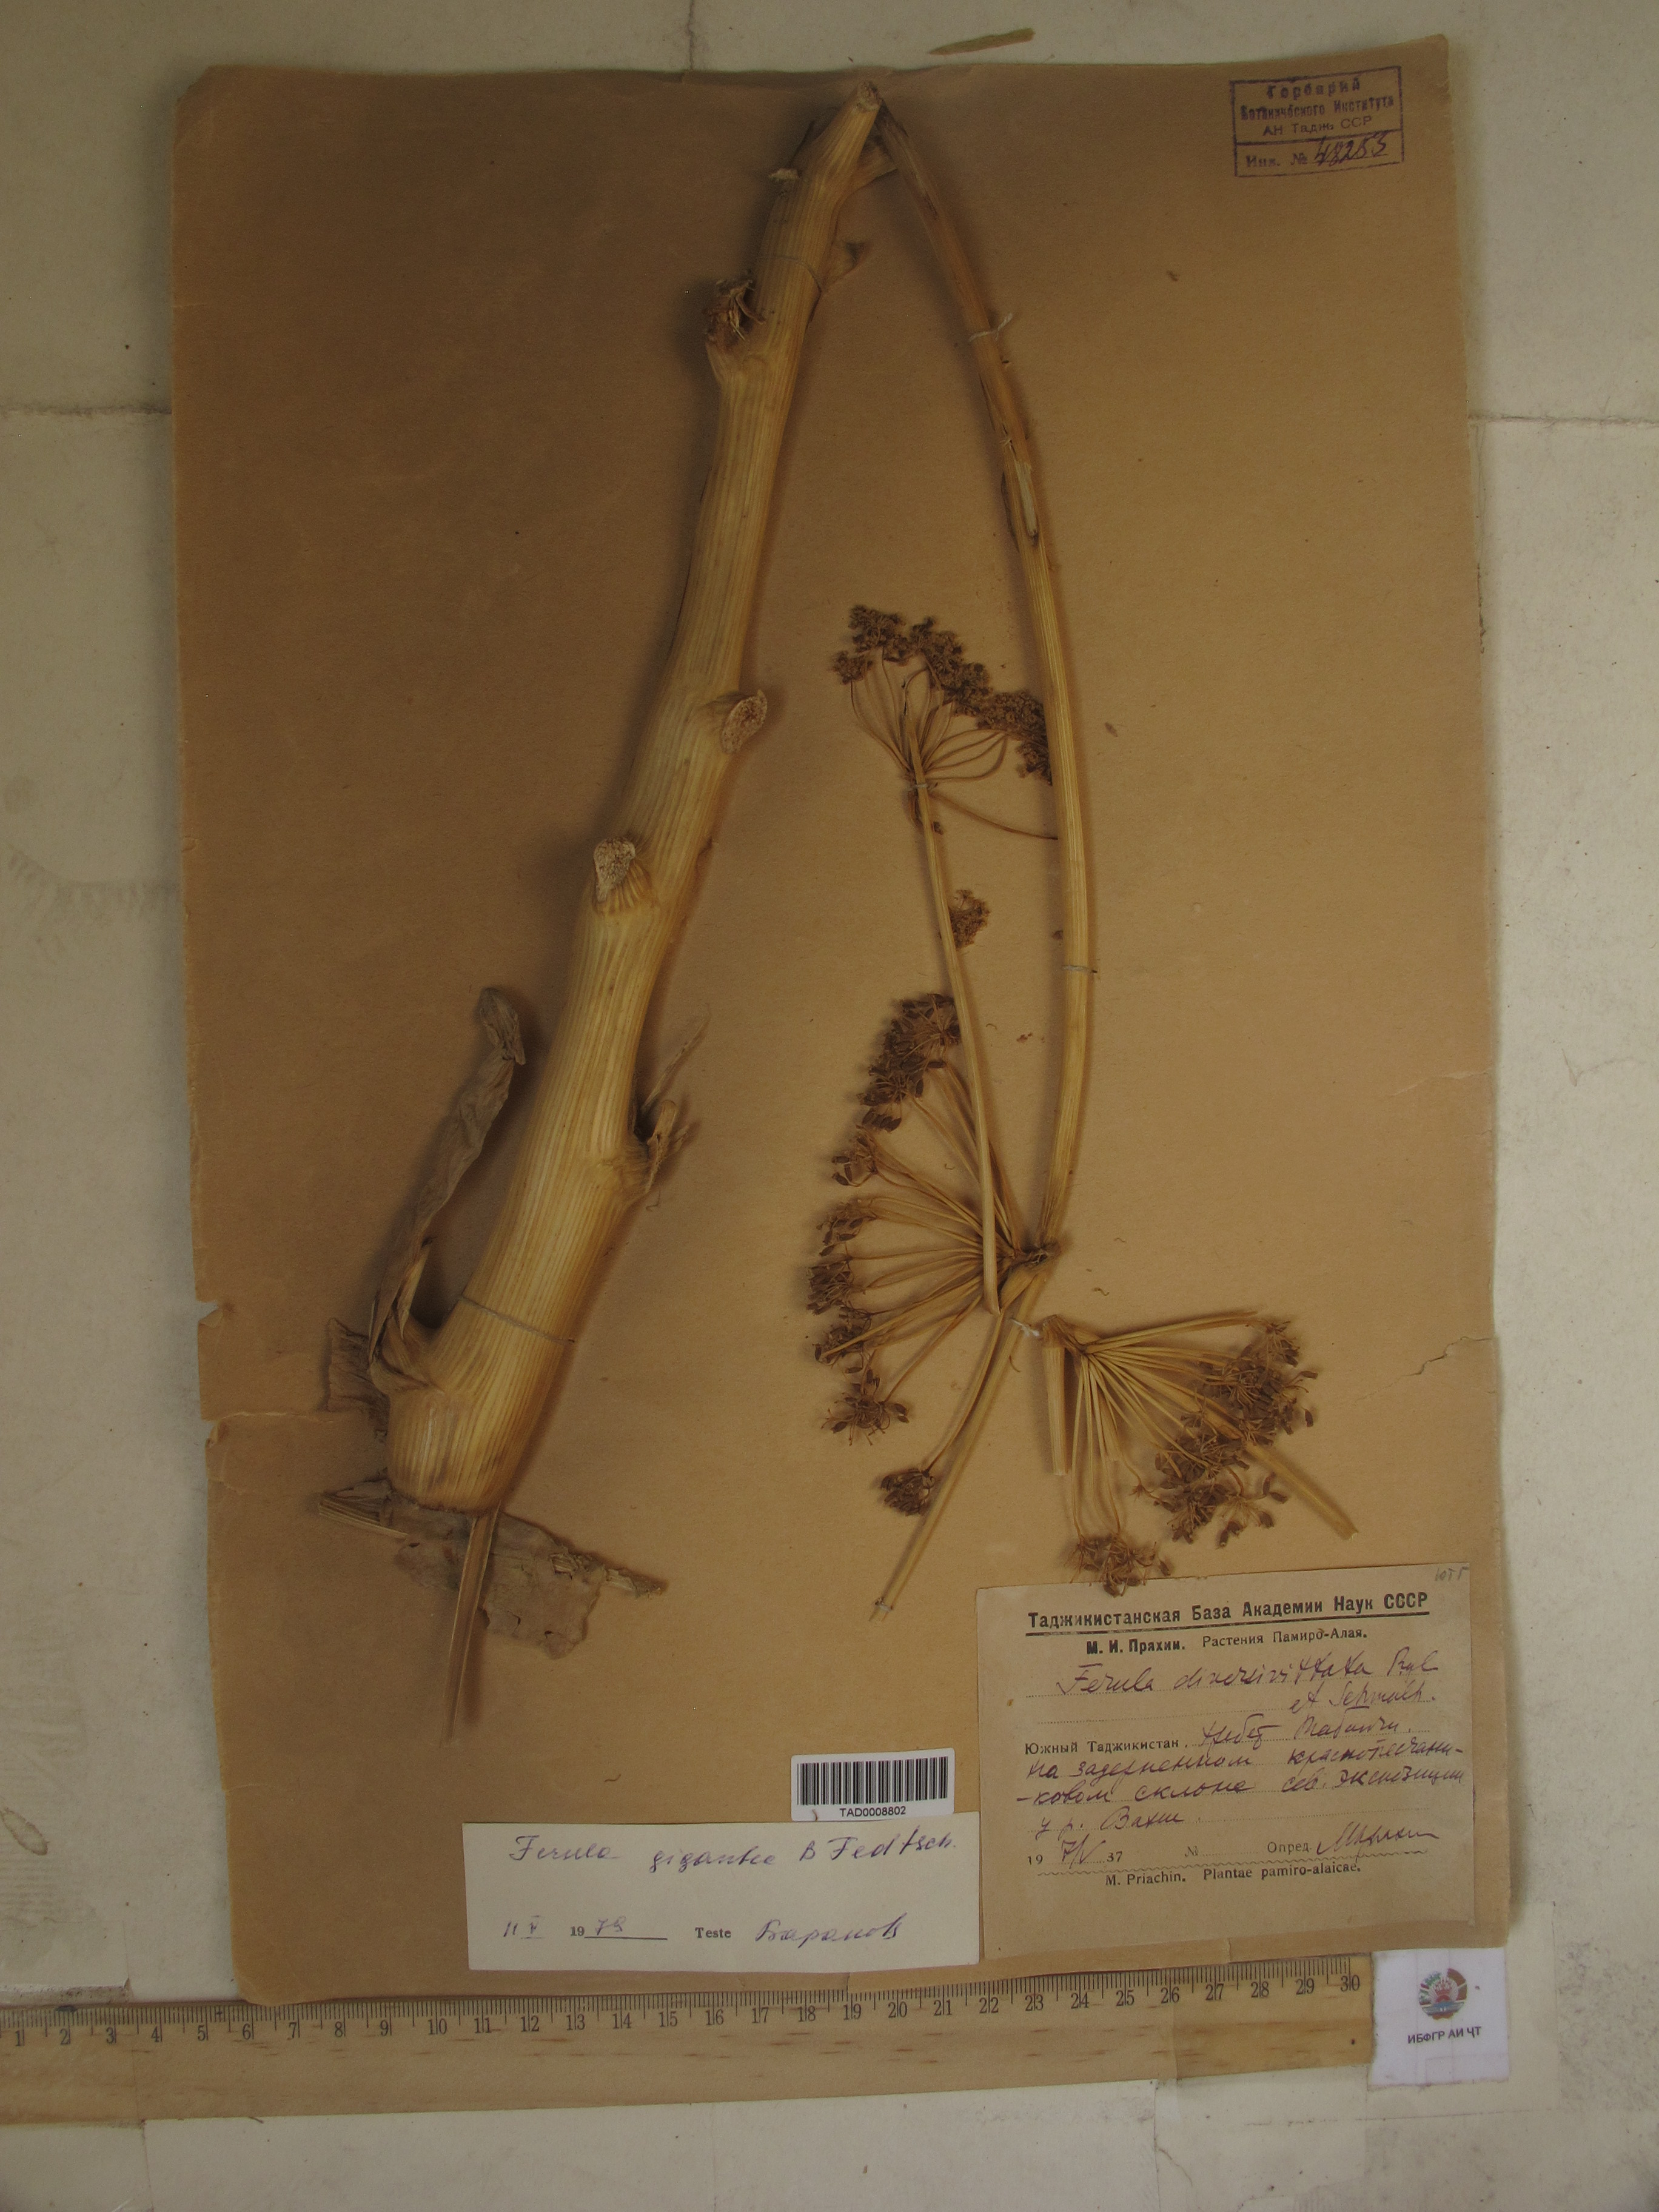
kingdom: Plantae
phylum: Tracheophyta
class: Magnoliopsida
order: Apiales
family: Apiaceae
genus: Ferula
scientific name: Ferula gigantea
